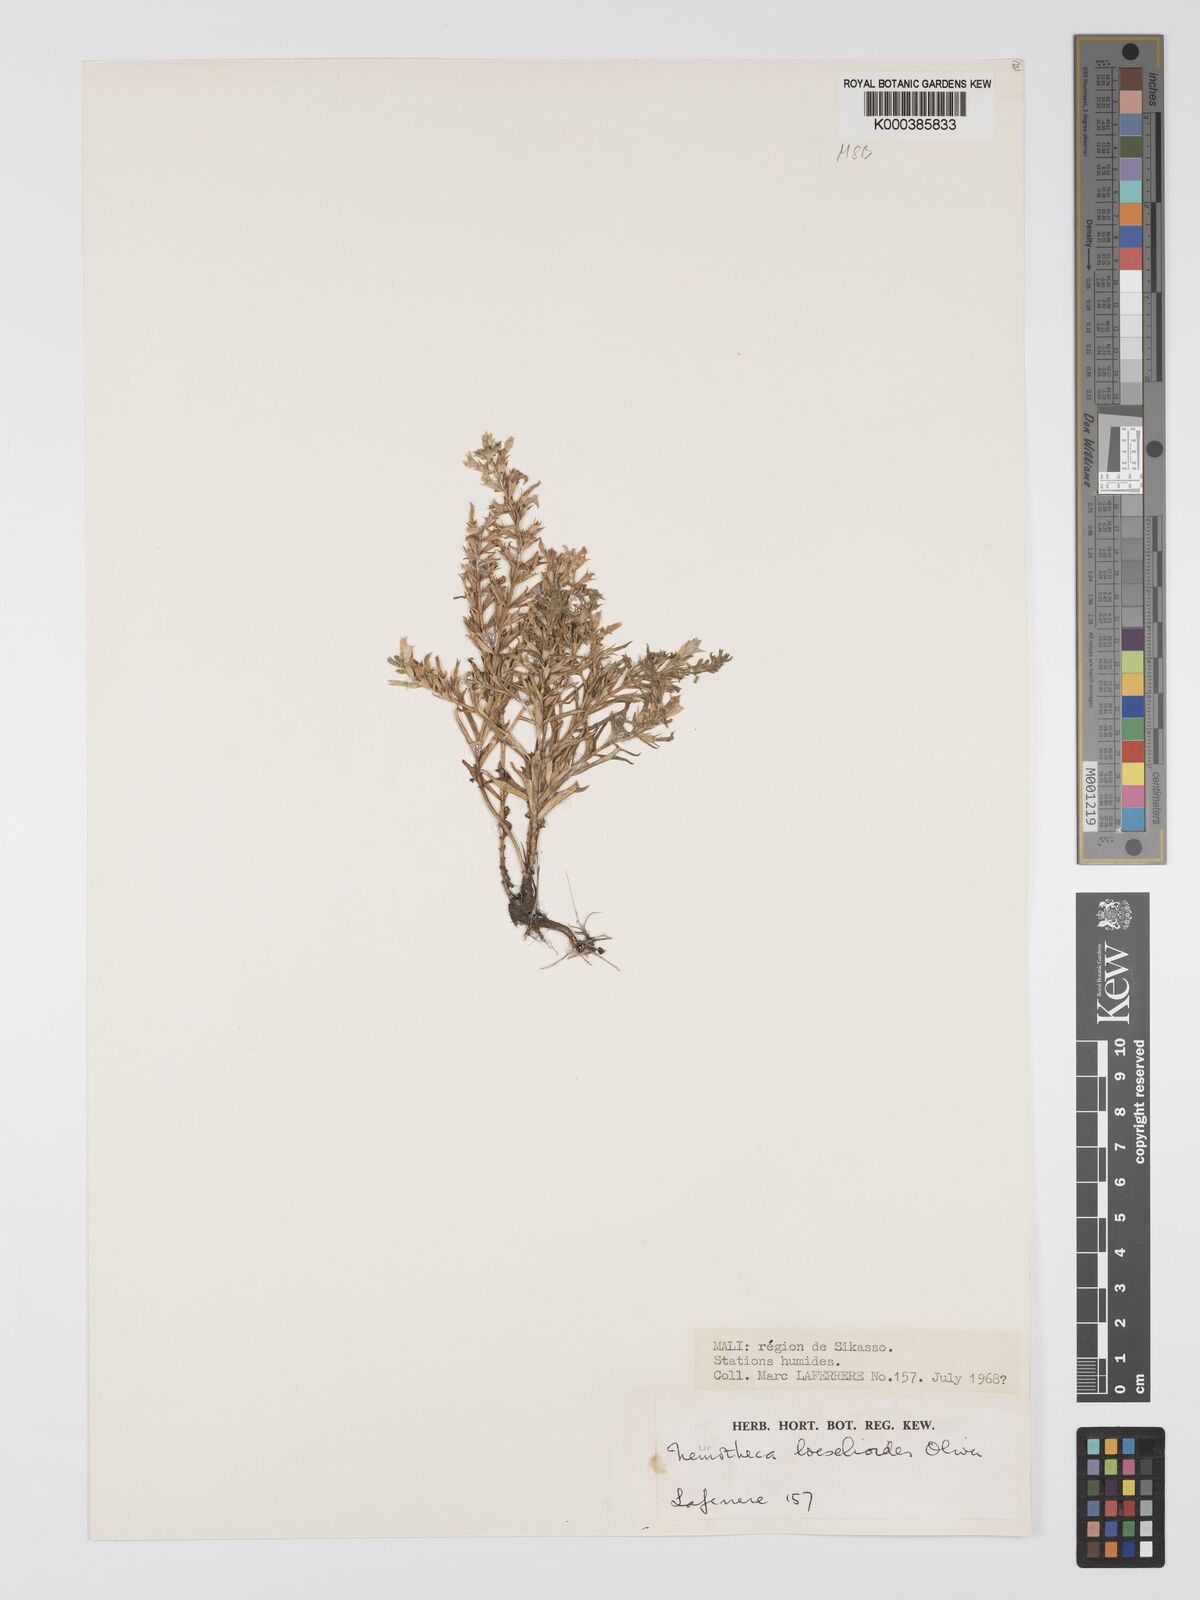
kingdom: Plantae
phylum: Tracheophyta
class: Magnoliopsida
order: Gentianales
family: Gentianaceae
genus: Neurotheca
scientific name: Neurotheca loeselioides
